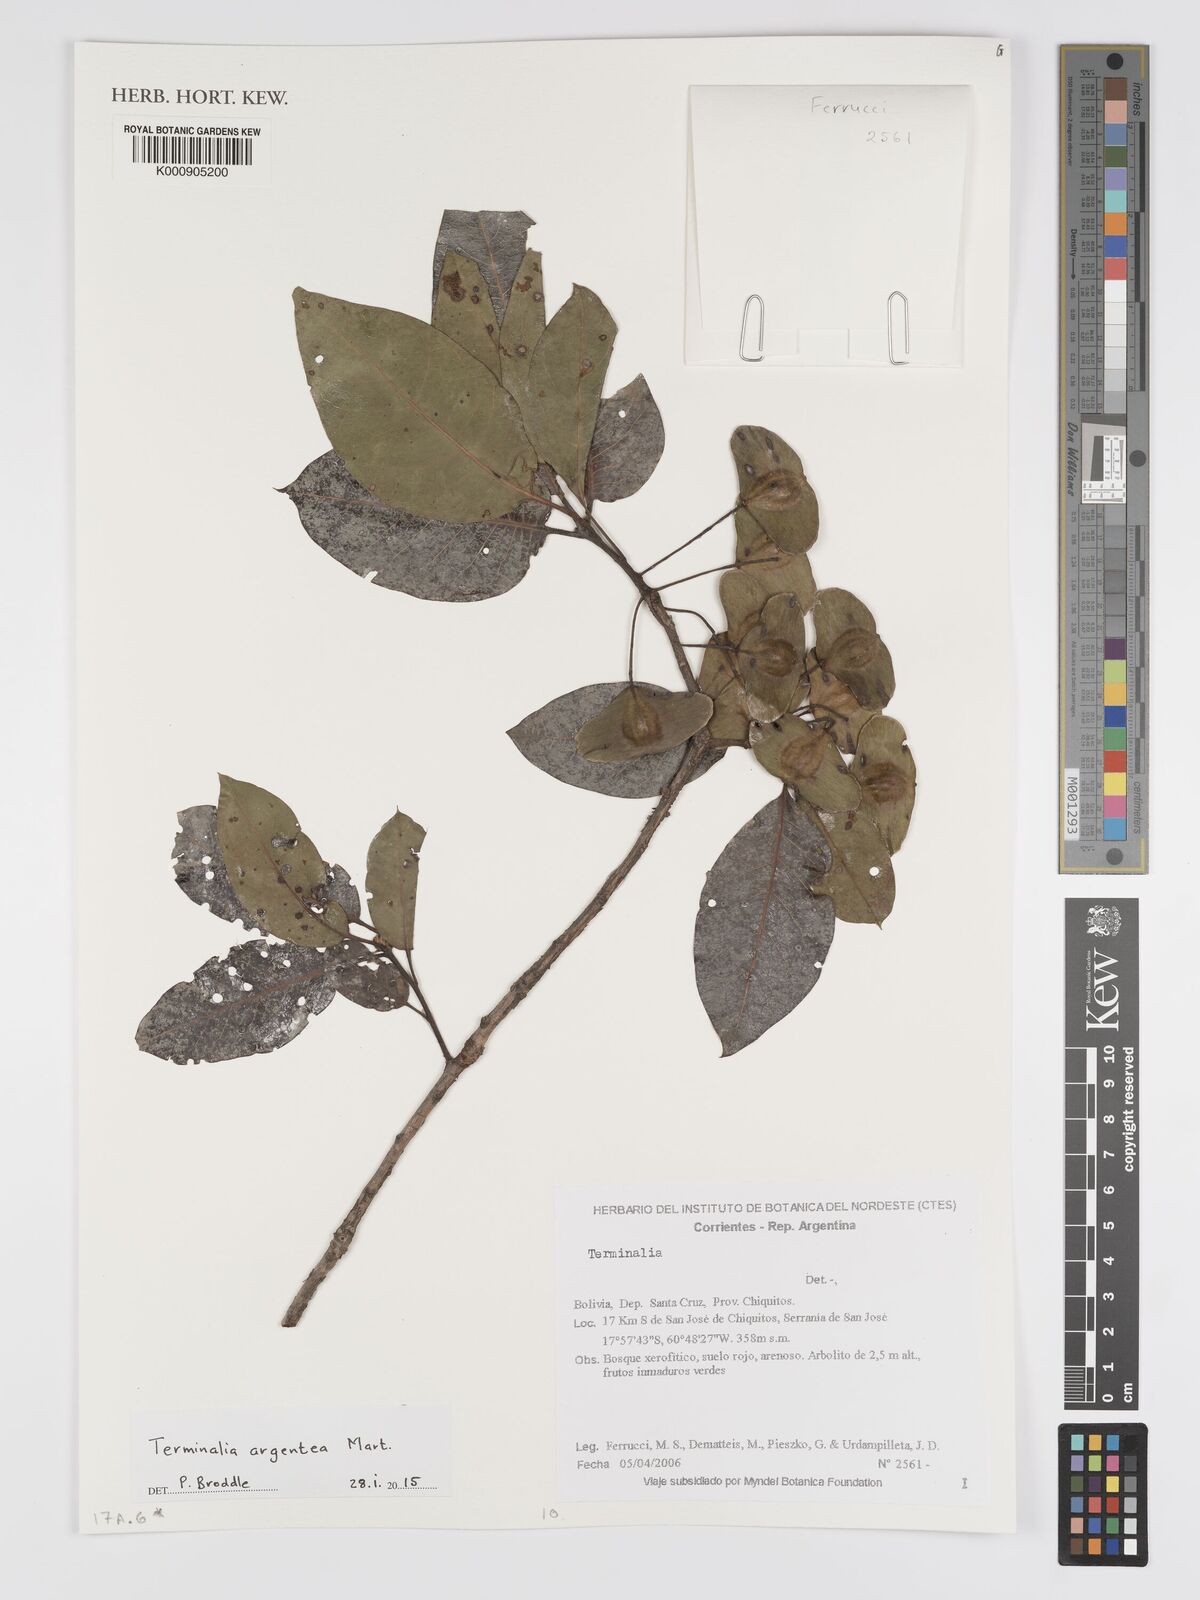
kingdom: Plantae
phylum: Tracheophyta
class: Magnoliopsida
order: Myrtales
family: Combretaceae
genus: Terminalia
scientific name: Terminalia argentea
